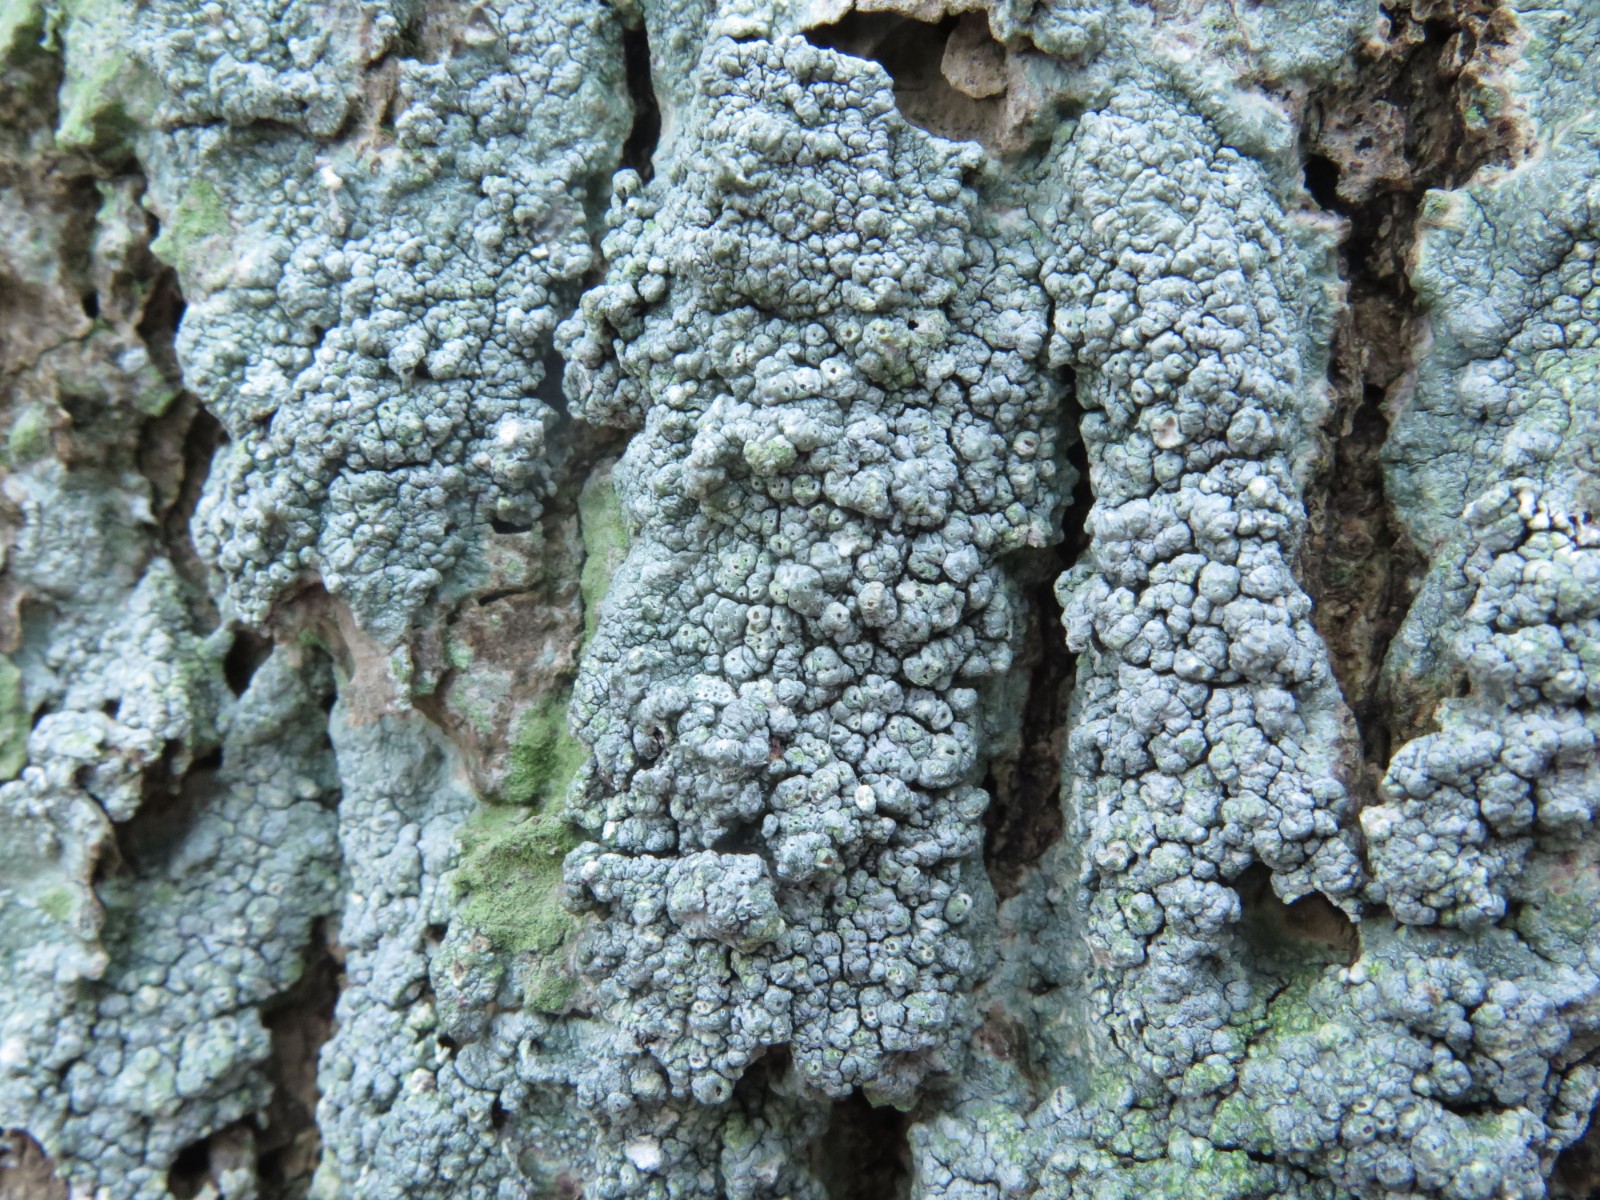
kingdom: Fungi
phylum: Ascomycota
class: Lecanoromycetes
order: Pertusariales
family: Pertusariaceae
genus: Pertusaria
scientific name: Pertusaria pertusa
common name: almindelig prikvortelav
